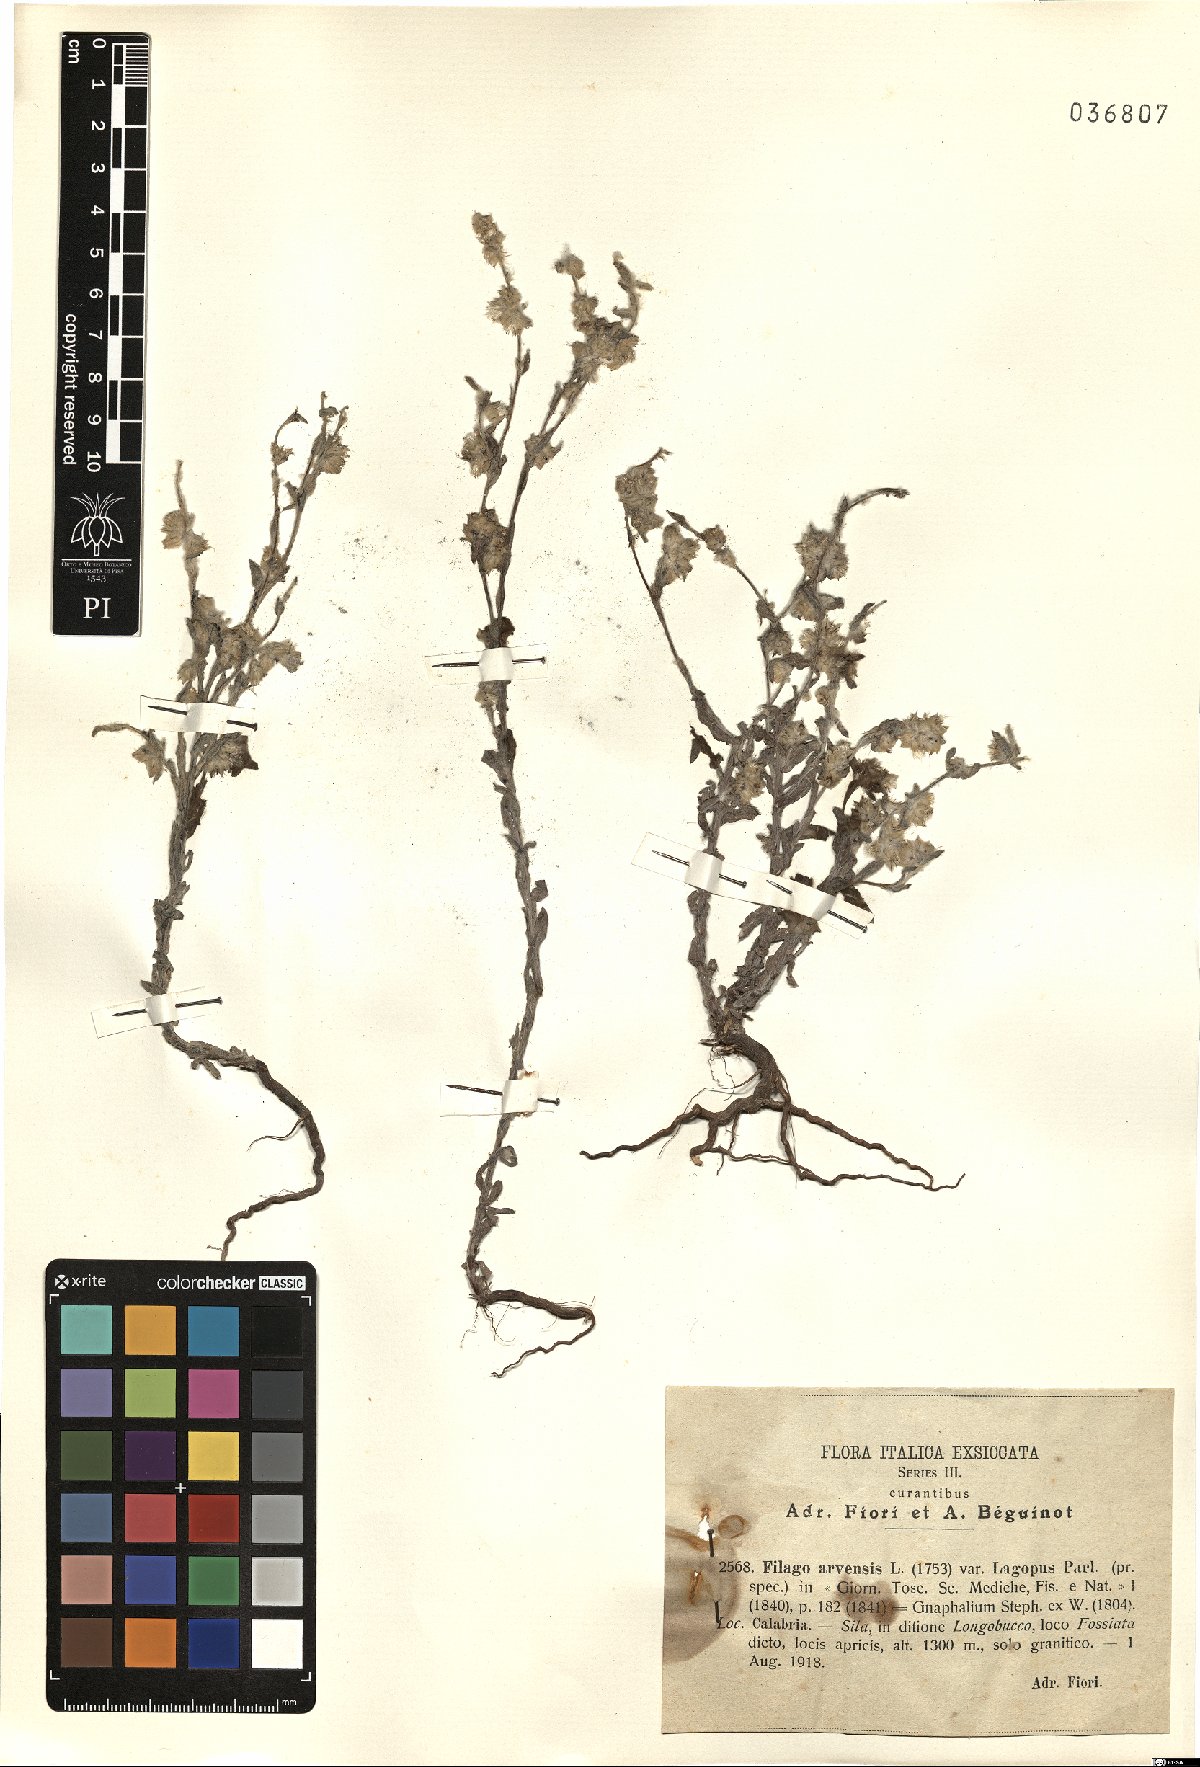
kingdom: Plantae
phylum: Tracheophyta
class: Magnoliopsida
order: Asterales
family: Asteraceae
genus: Filago
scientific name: Filago arvensis
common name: Field cudweed
